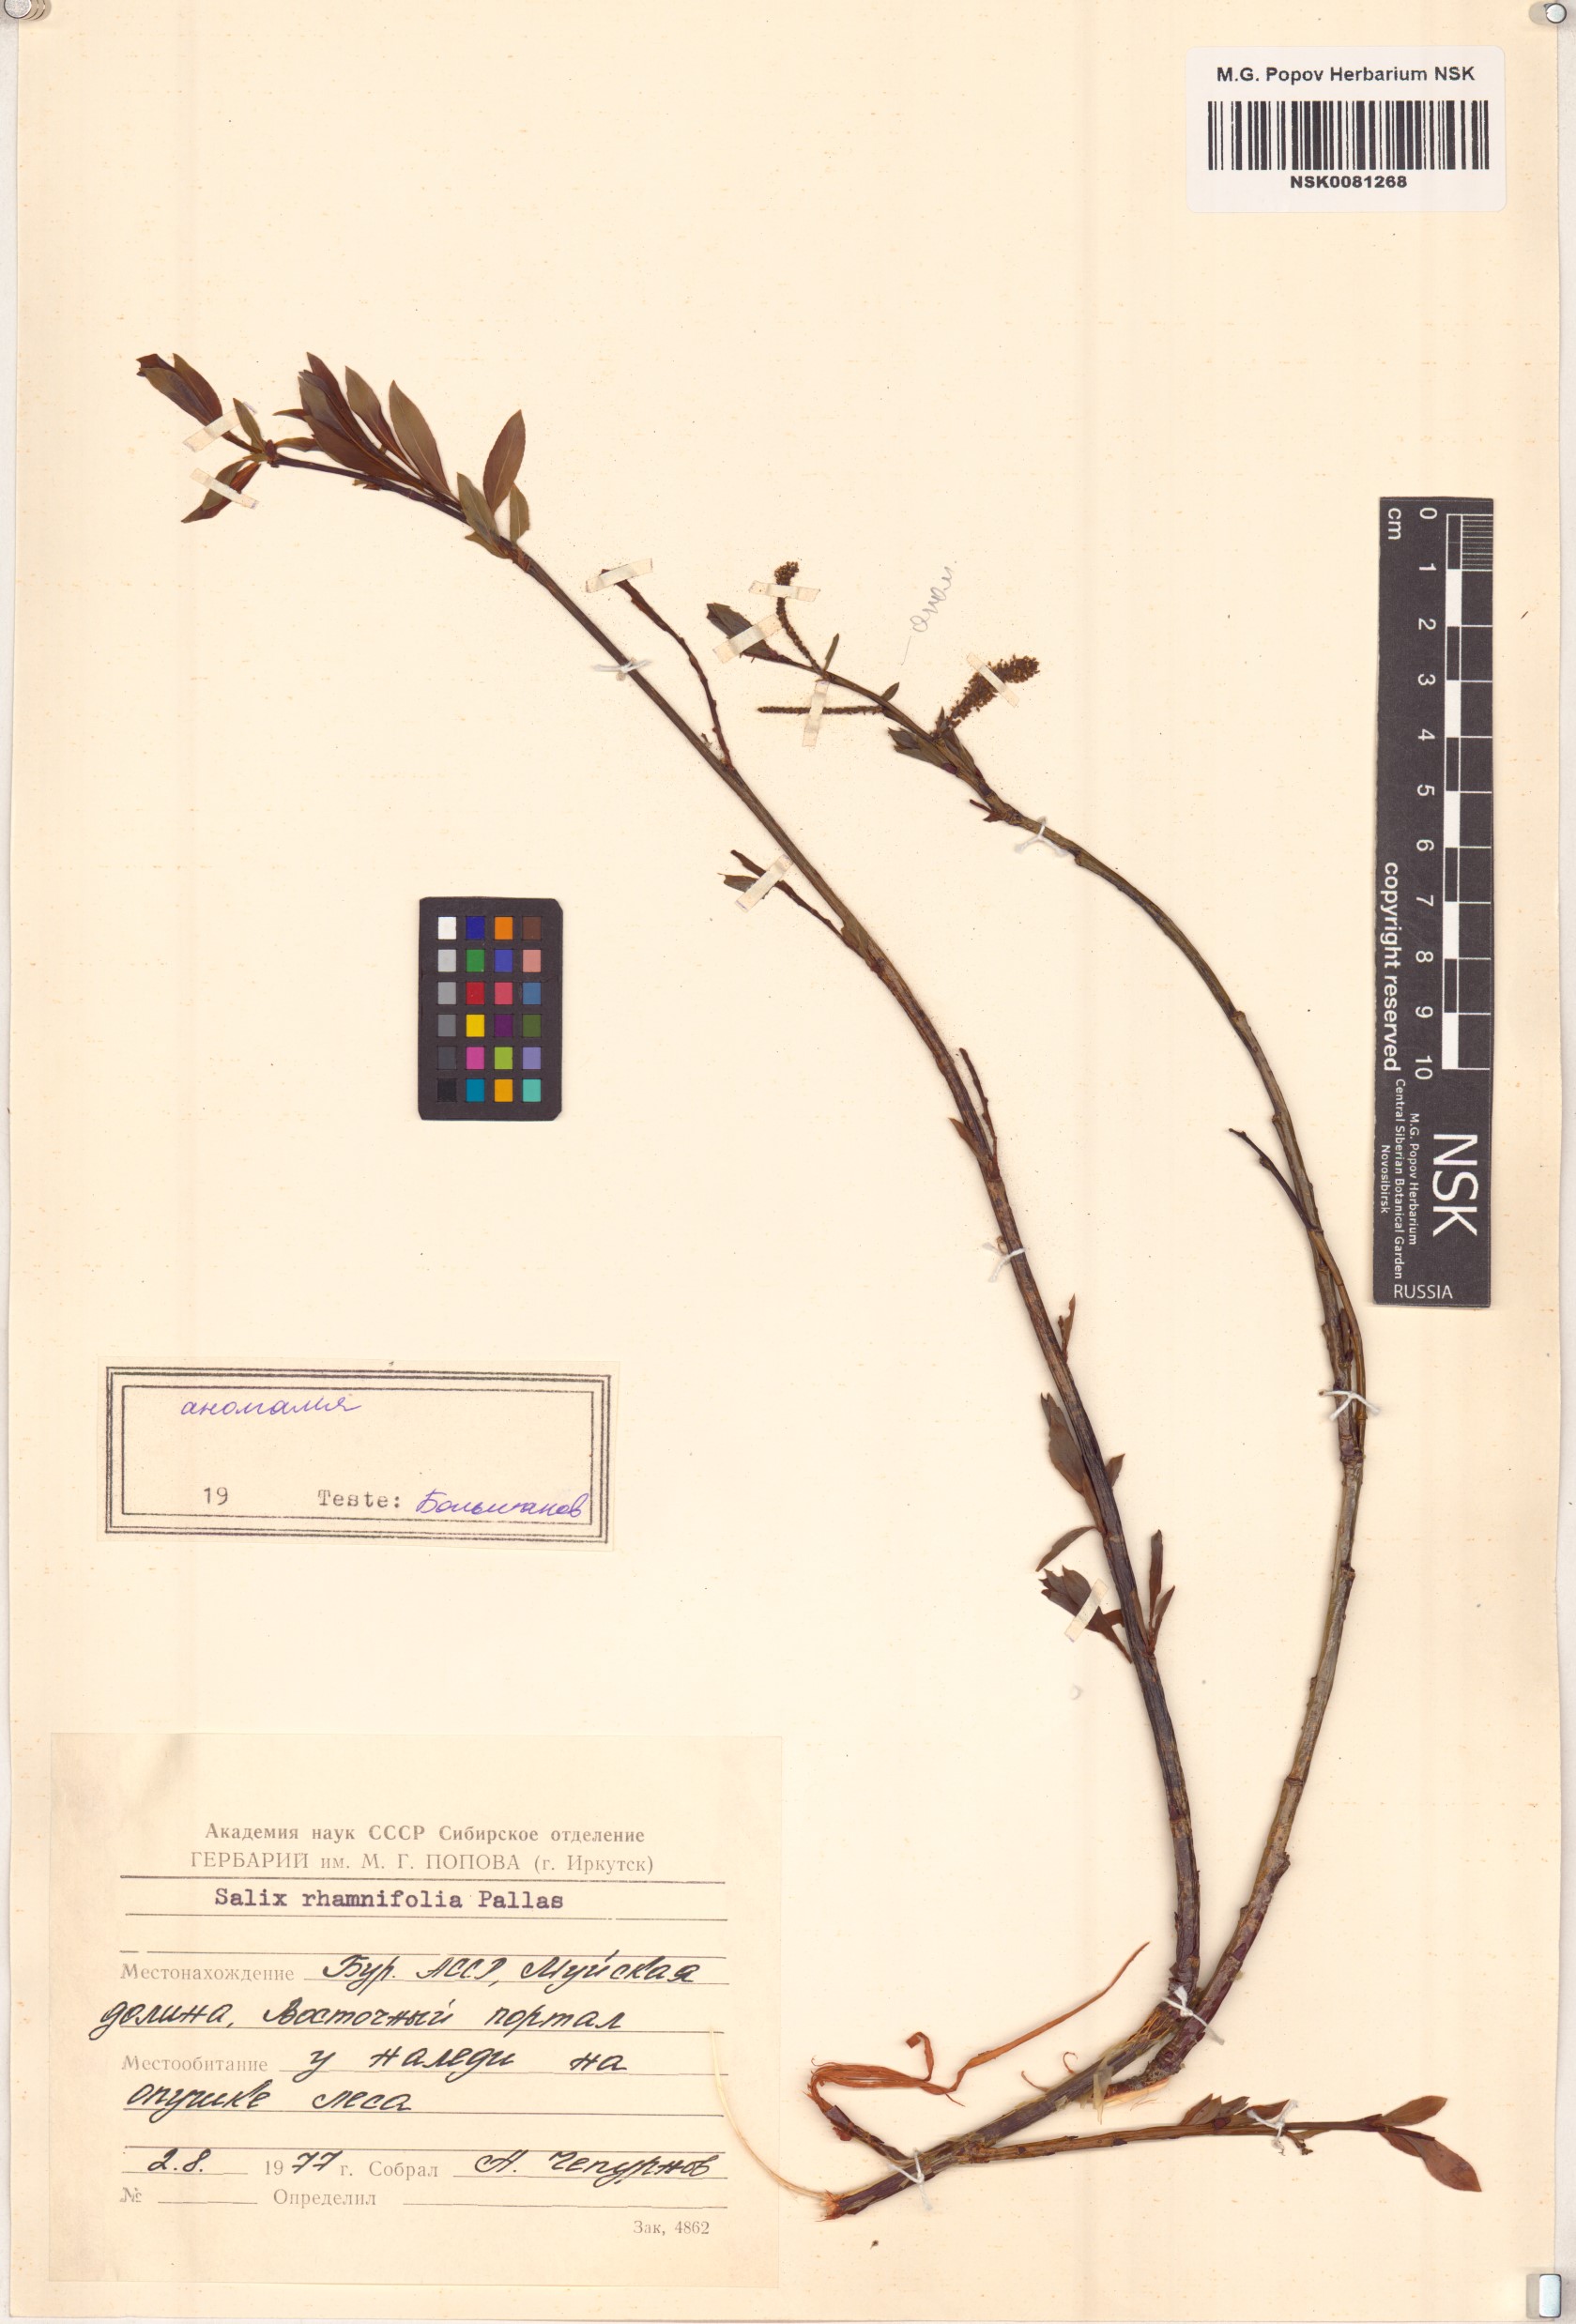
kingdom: Plantae
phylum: Tracheophyta
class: Magnoliopsida
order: Malpighiales
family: Salicaceae
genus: Salix
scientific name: Salix rhamnifolia
